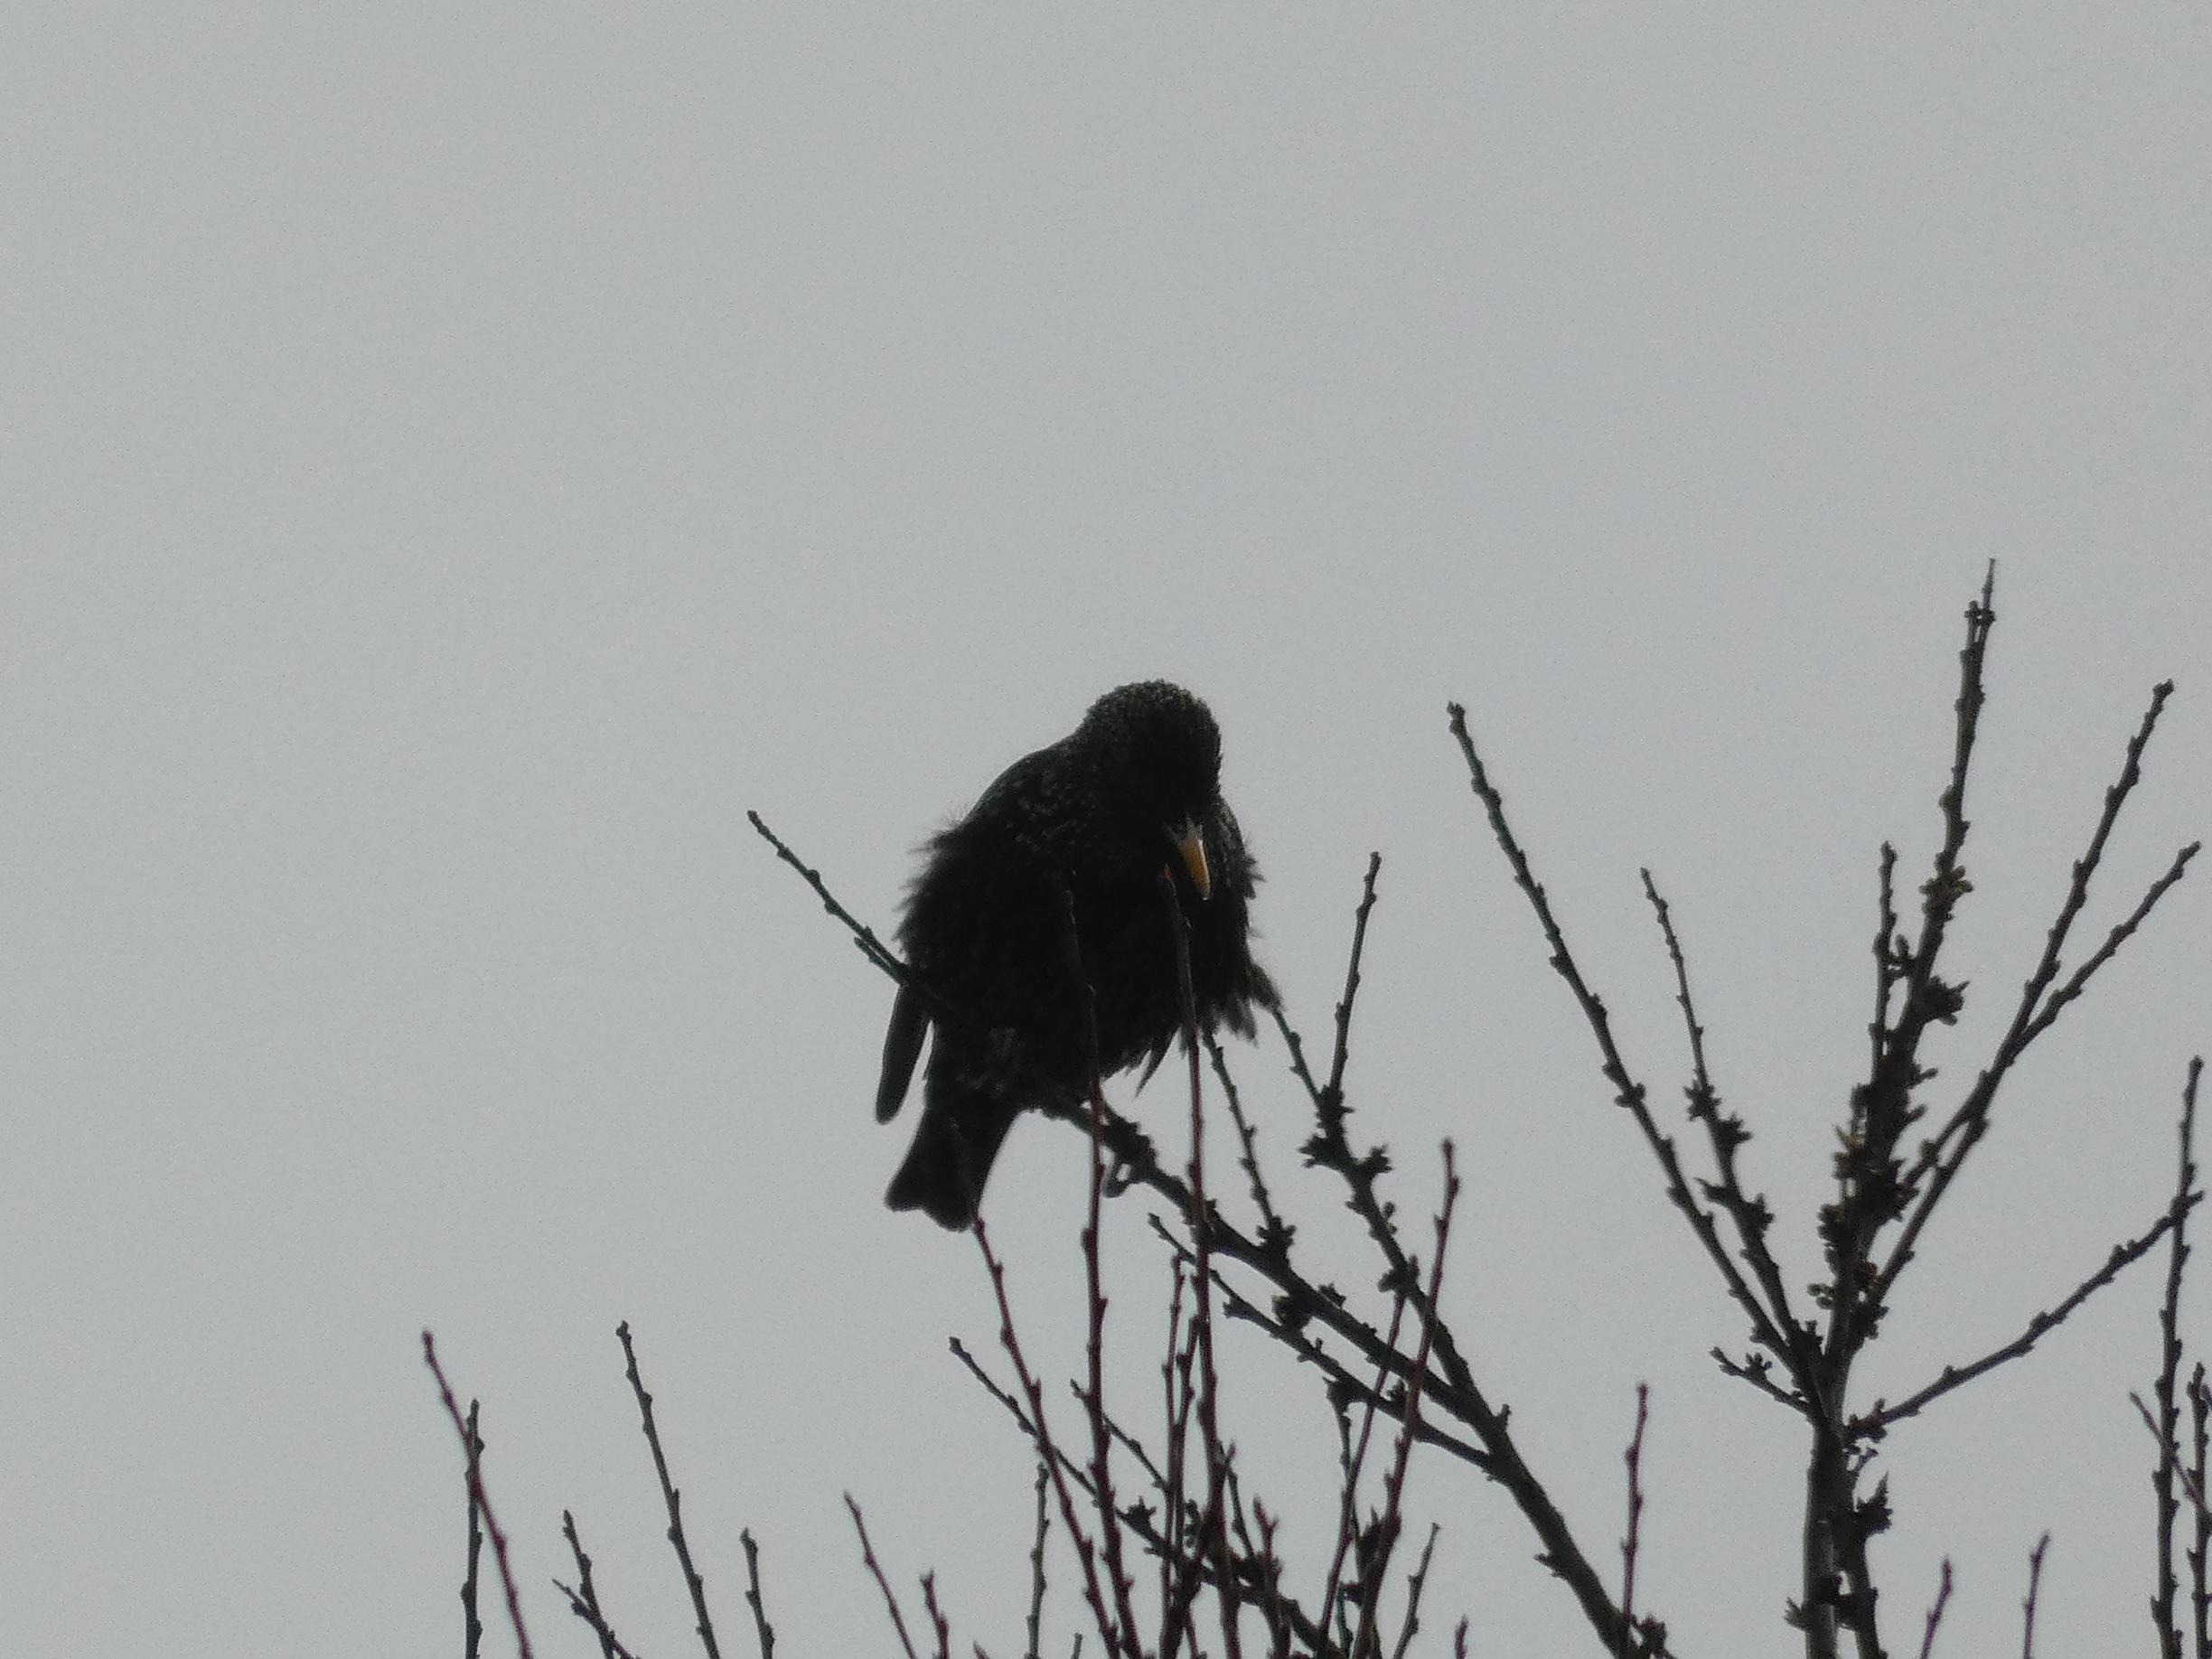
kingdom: Animalia
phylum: Chordata
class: Aves
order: Passeriformes
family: Sturnidae
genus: Sturnus
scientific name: Sturnus vulgaris
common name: Stær
